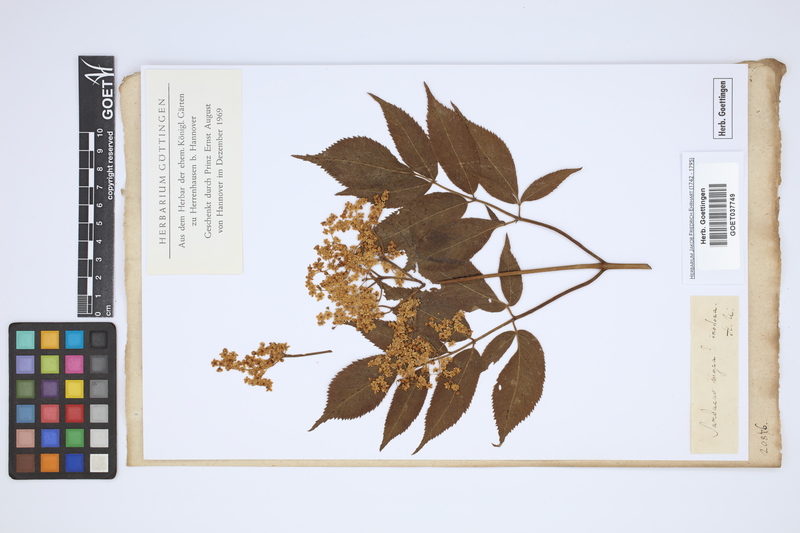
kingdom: Plantae
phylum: Tracheophyta
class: Magnoliopsida
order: Dipsacales
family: Viburnaceae
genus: Sambucus
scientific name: Sambucus nigra
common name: Elder
